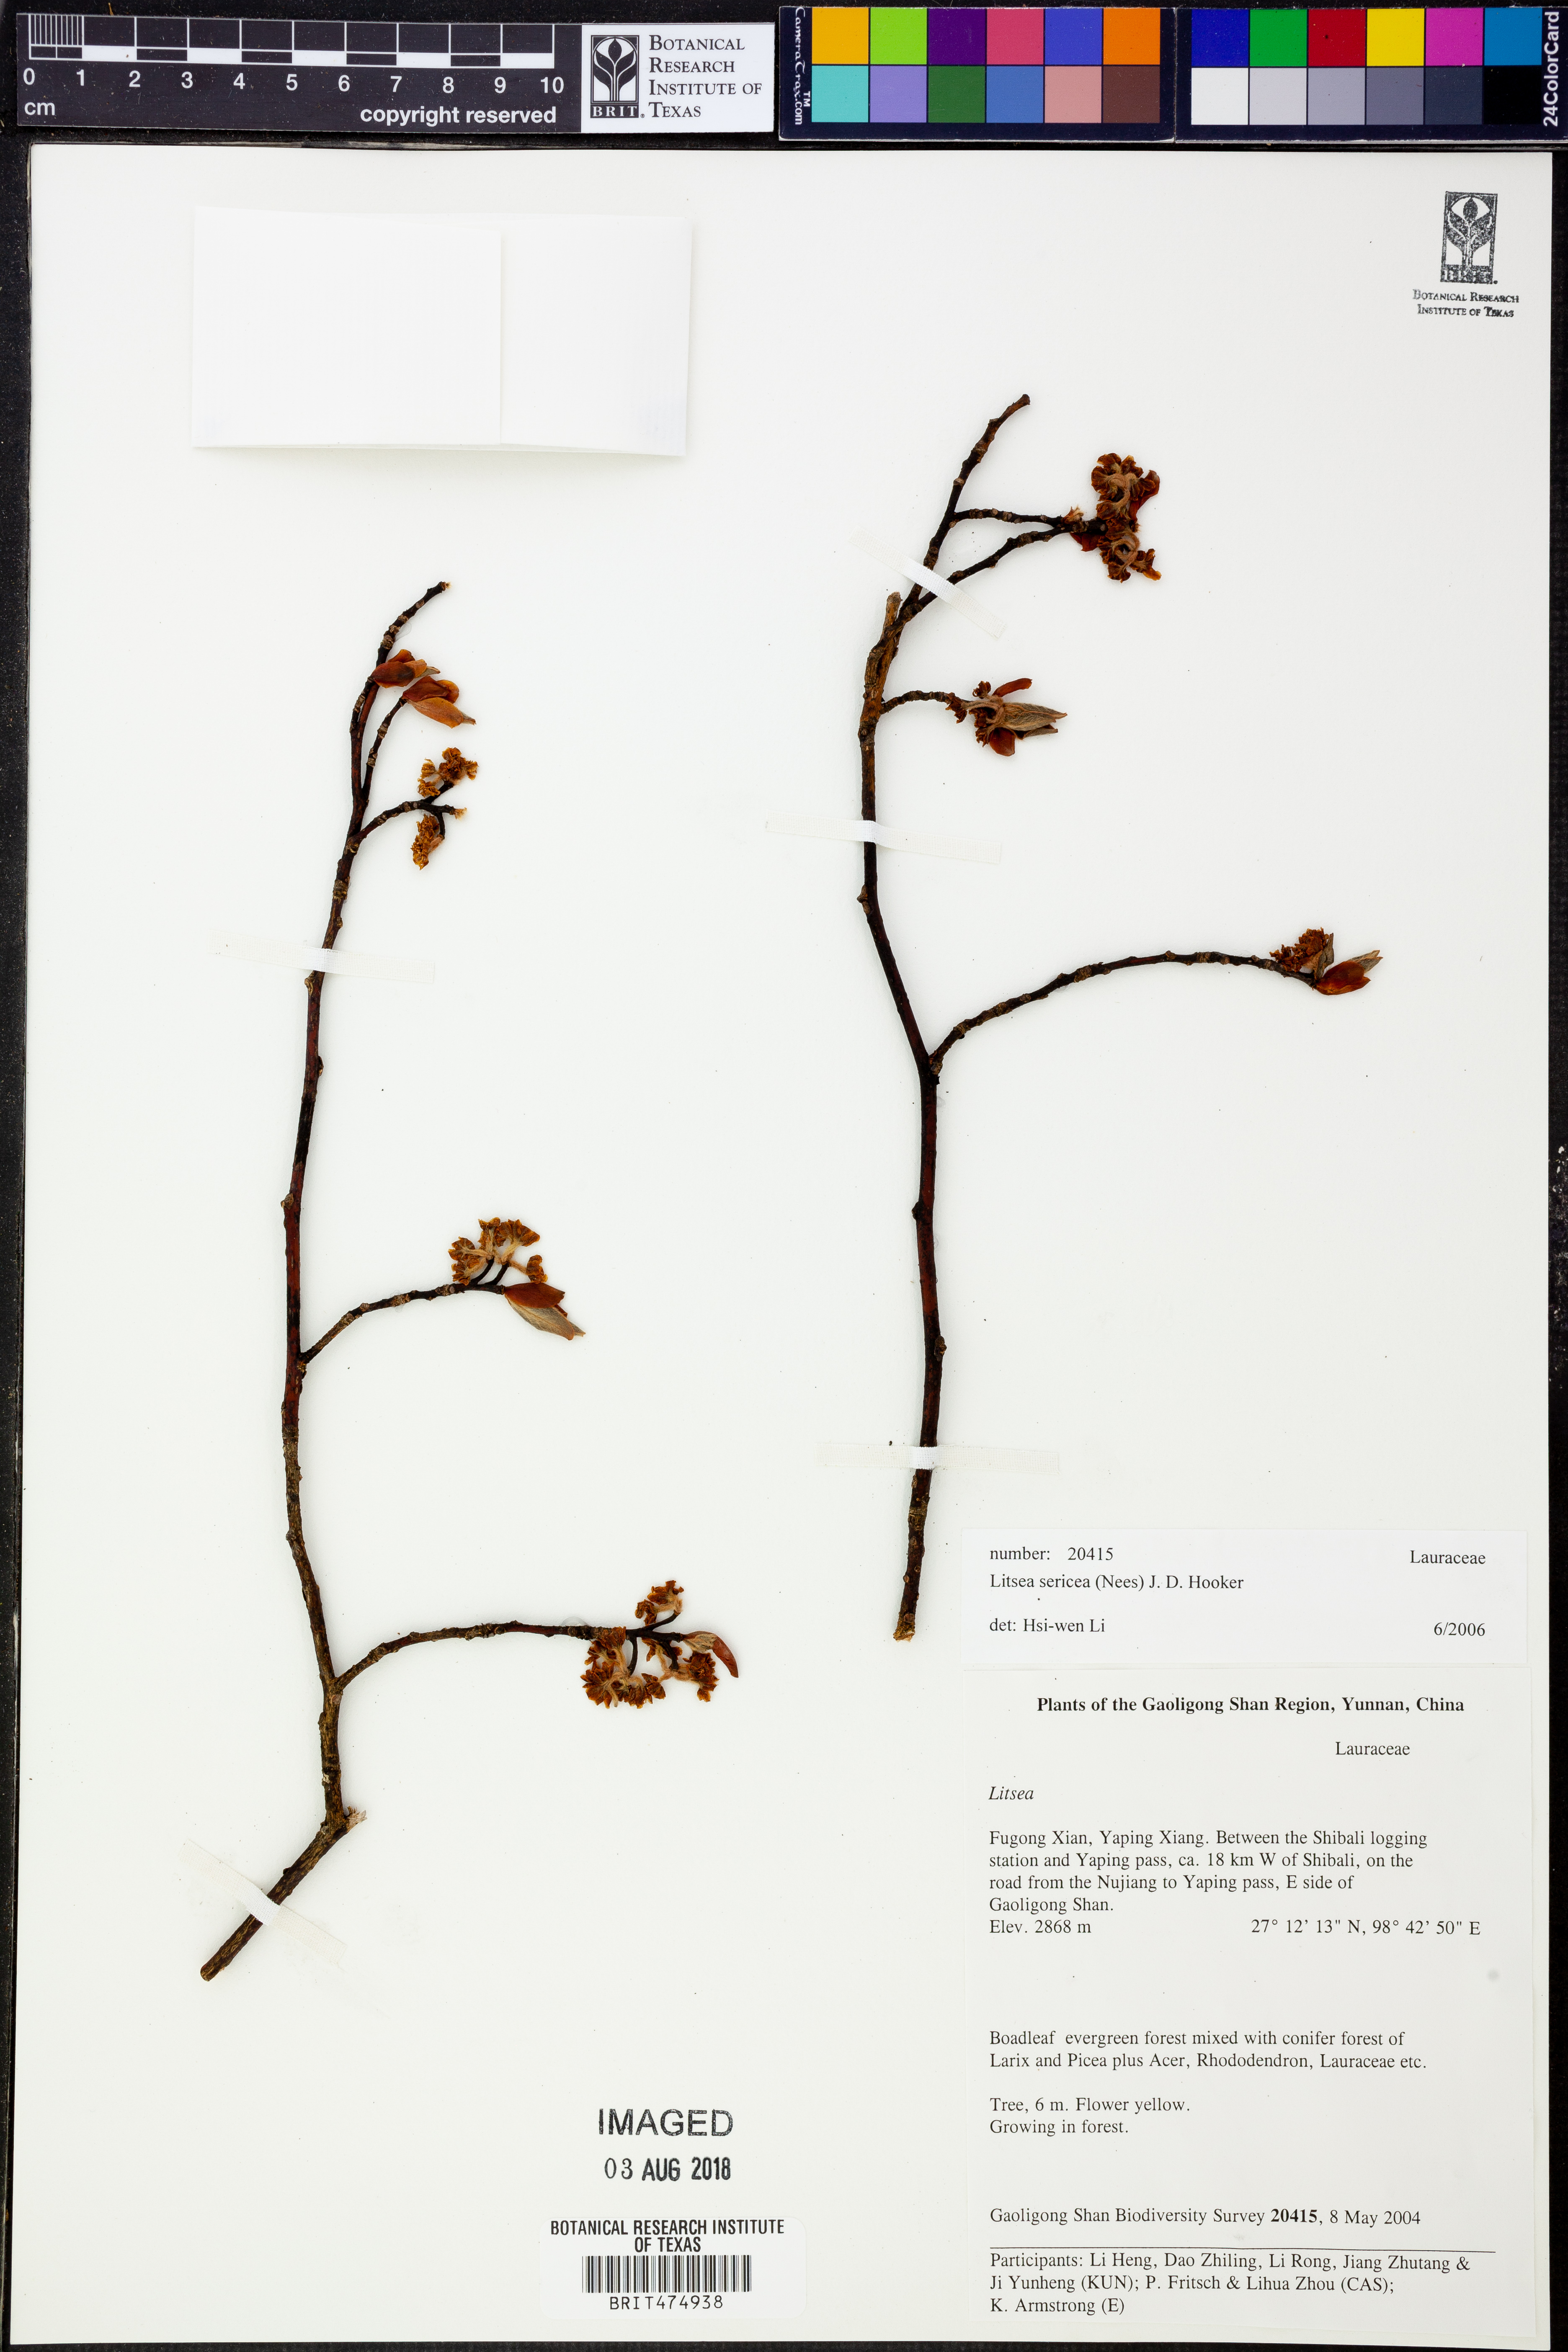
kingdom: Plantae
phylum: Tracheophyta
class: Magnoliopsida
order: Laurales
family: Lauraceae
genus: Litsea
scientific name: Litsea sericea
